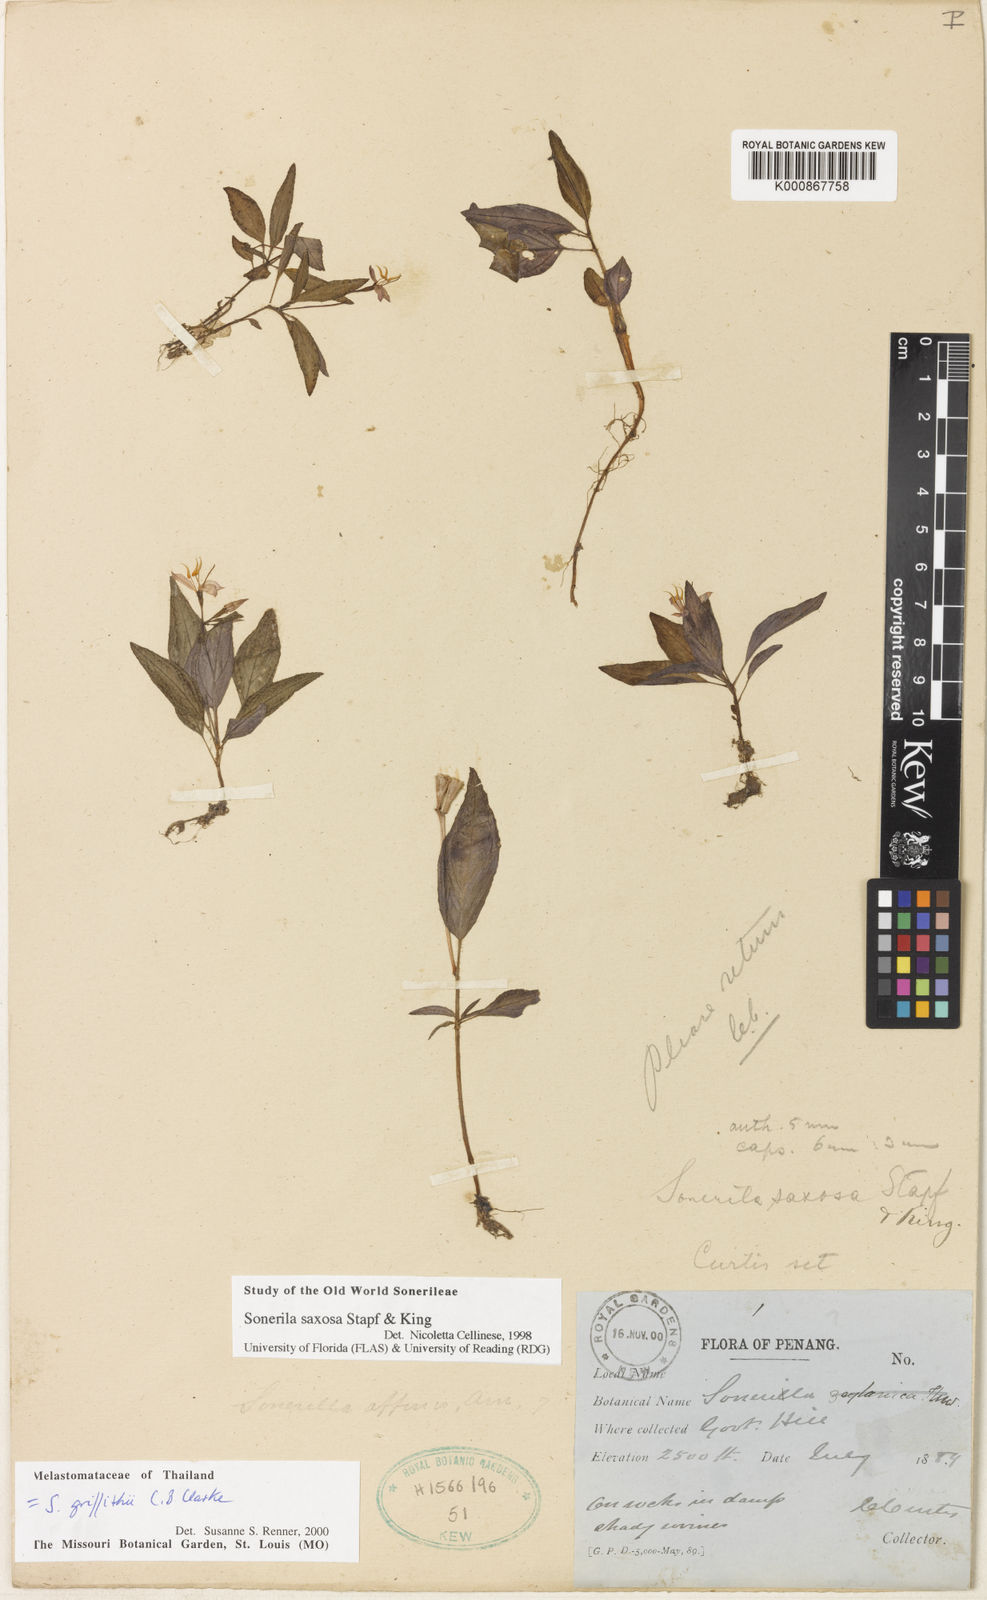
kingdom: Plantae
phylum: Tracheophyta
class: Magnoliopsida
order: Myrtales
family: Melastomataceae
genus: Sonerila
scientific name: Sonerila saxosa
